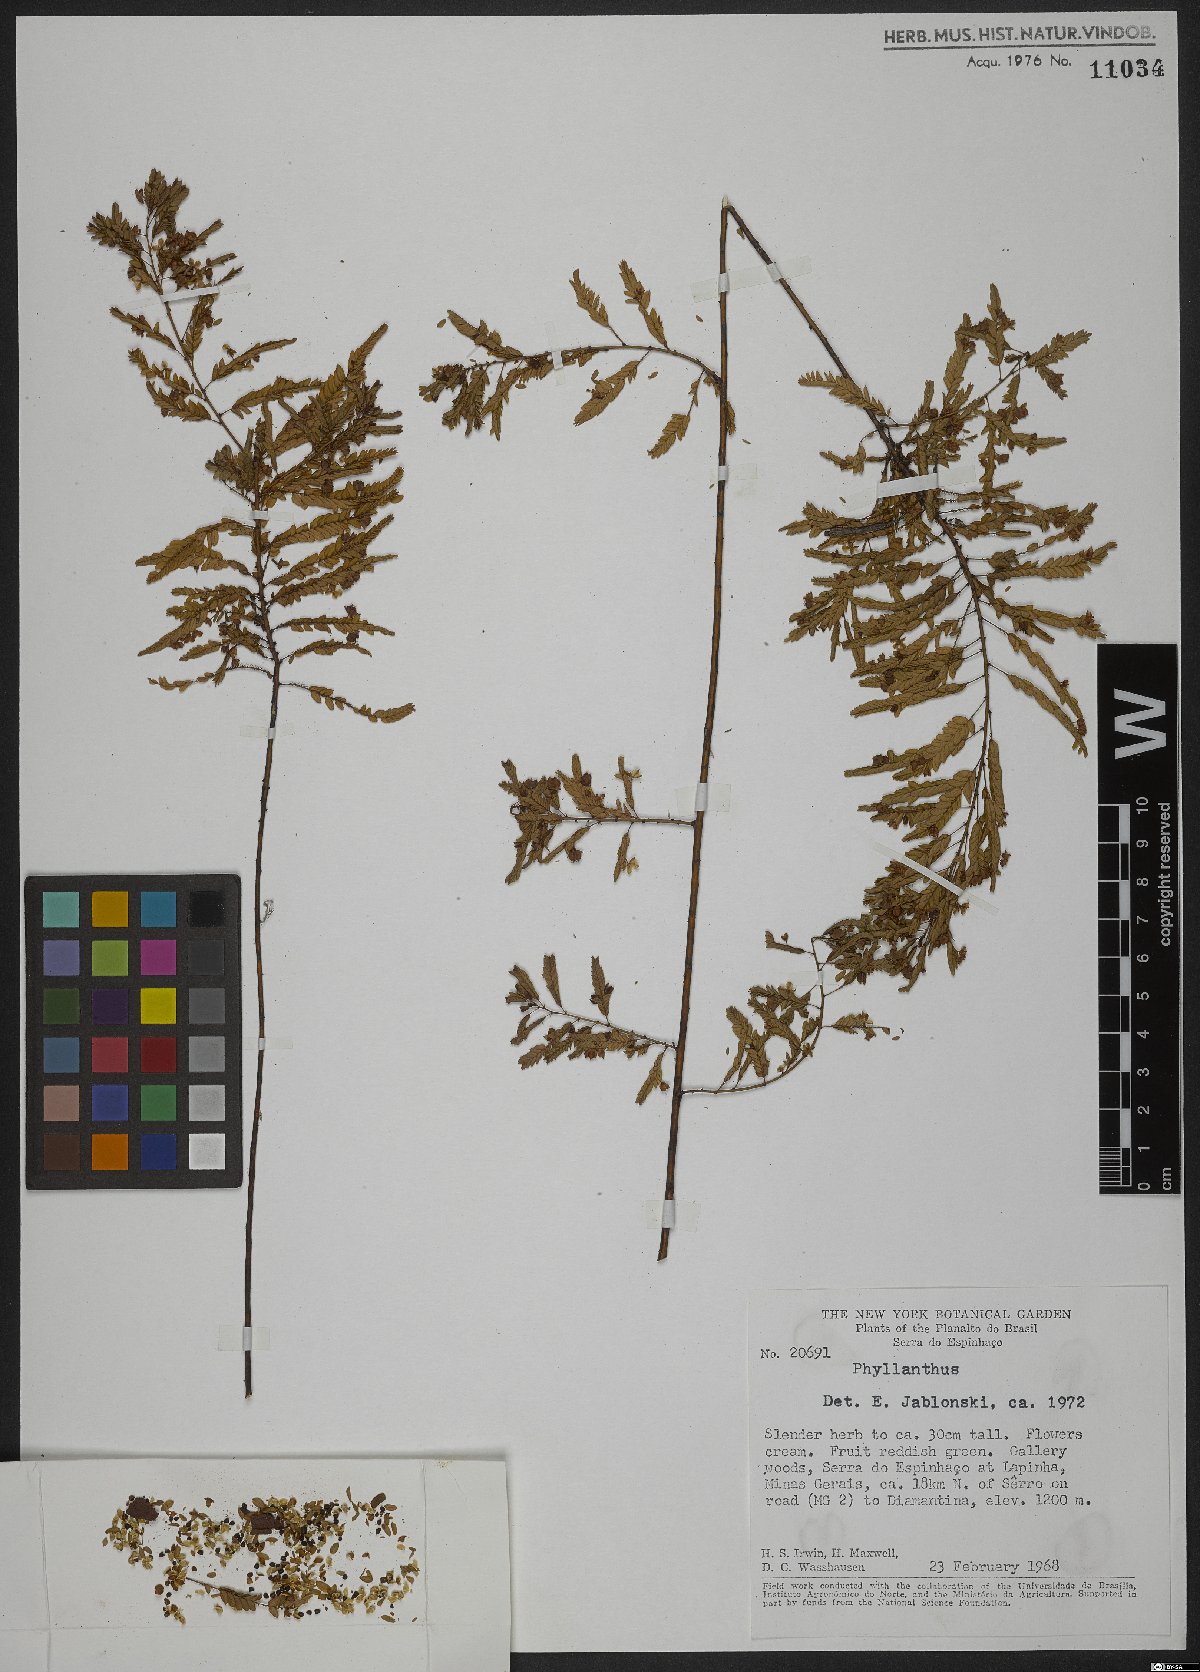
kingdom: Plantae
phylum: Tracheophyta
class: Magnoliopsida
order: Malpighiales
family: Phyllanthaceae
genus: Phyllanthus
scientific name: Phyllanthus
